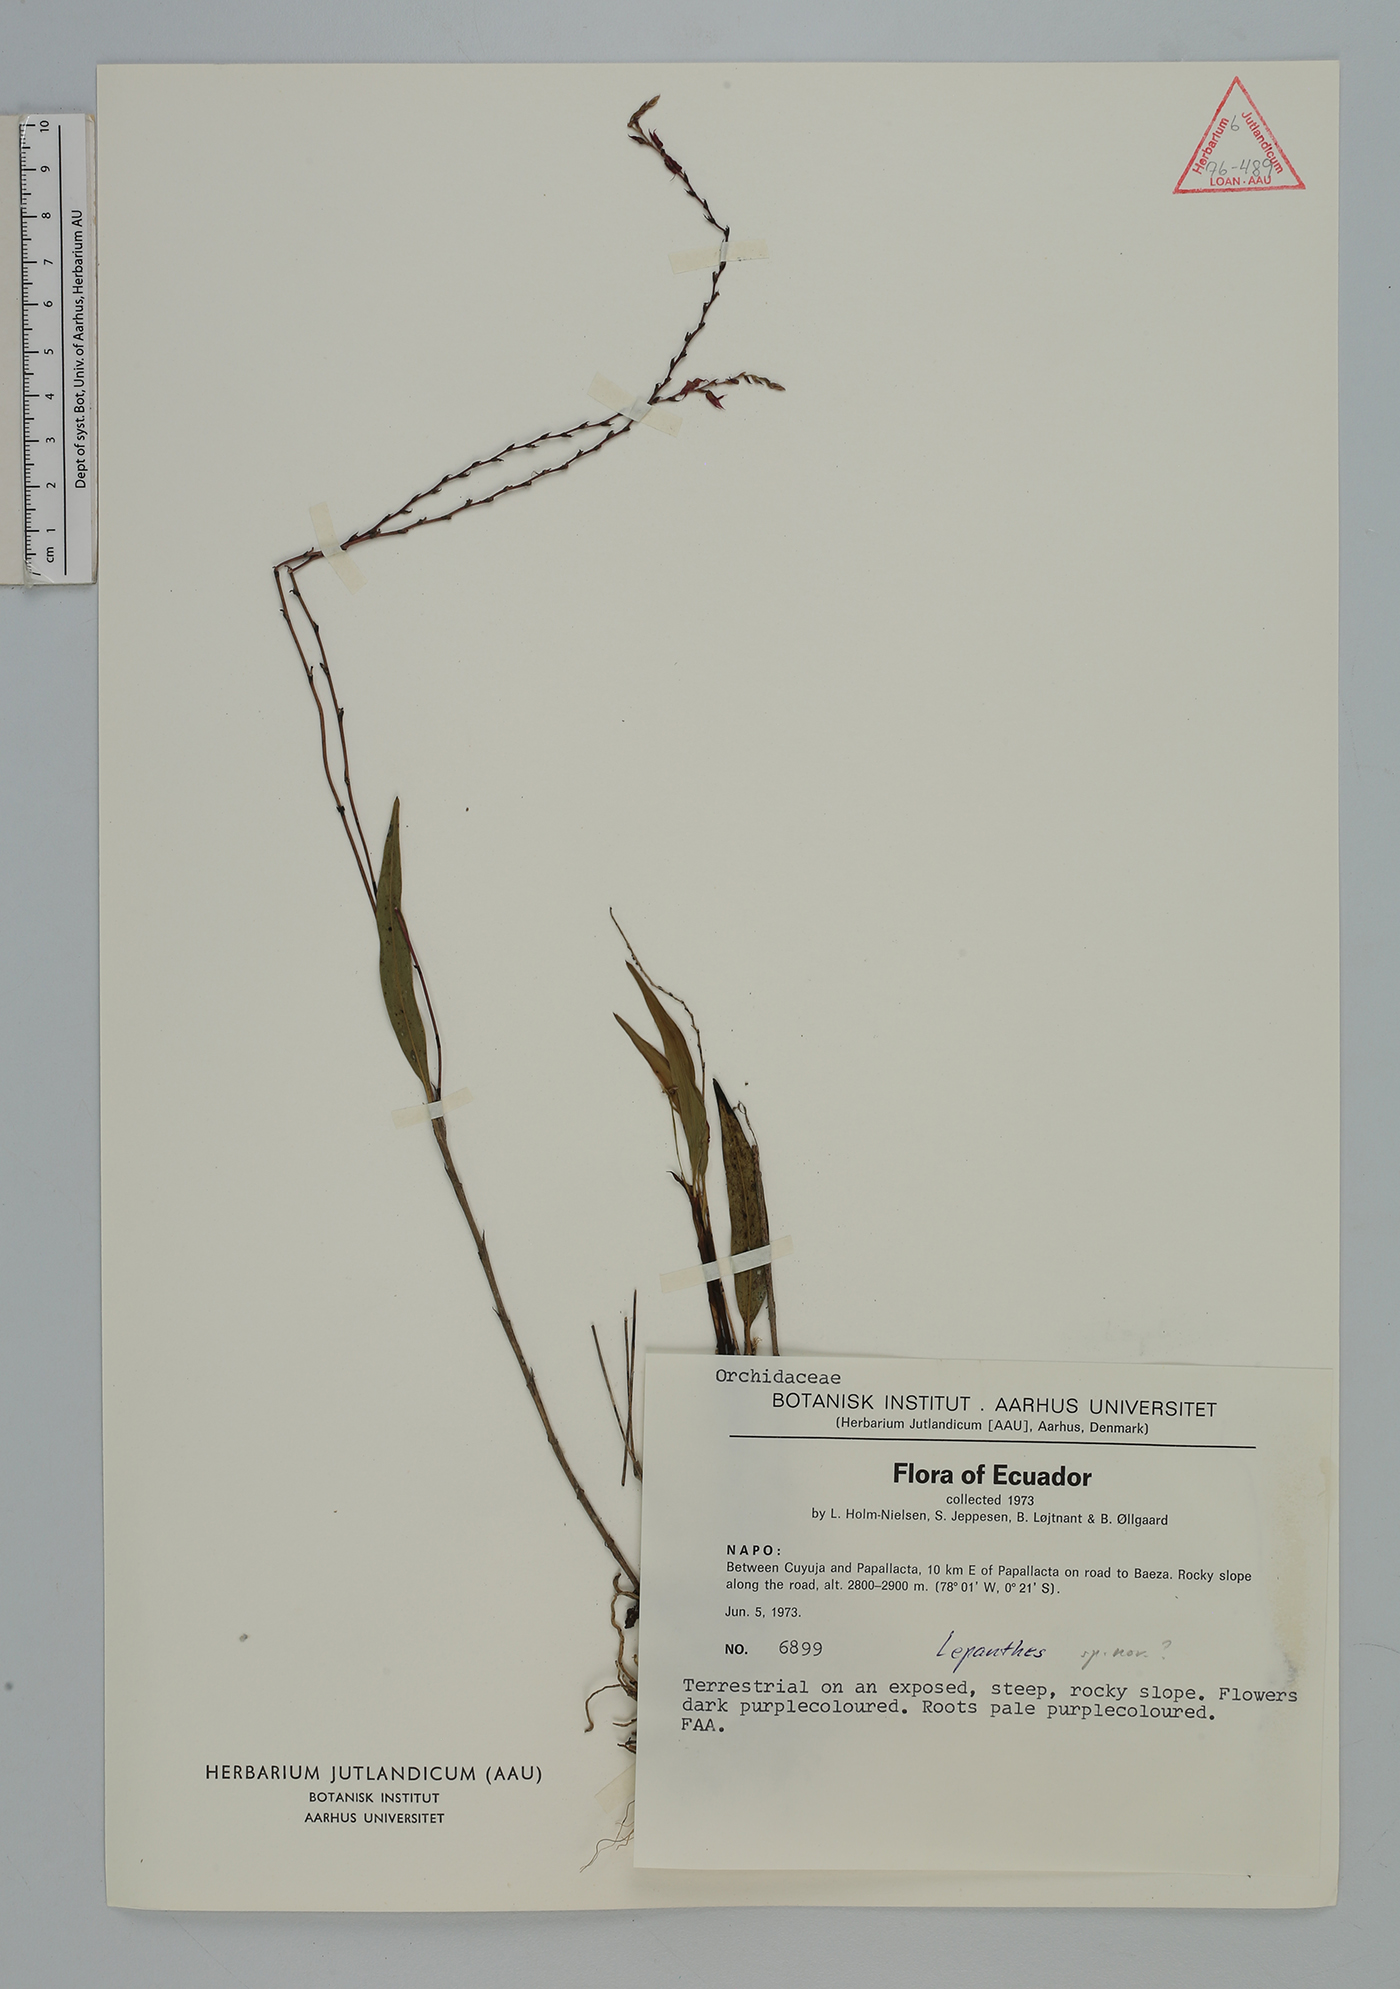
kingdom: Plantae
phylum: Tracheophyta
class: Liliopsida
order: Asparagales
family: Orchidaceae
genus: Lepanthes
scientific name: Lepanthes
